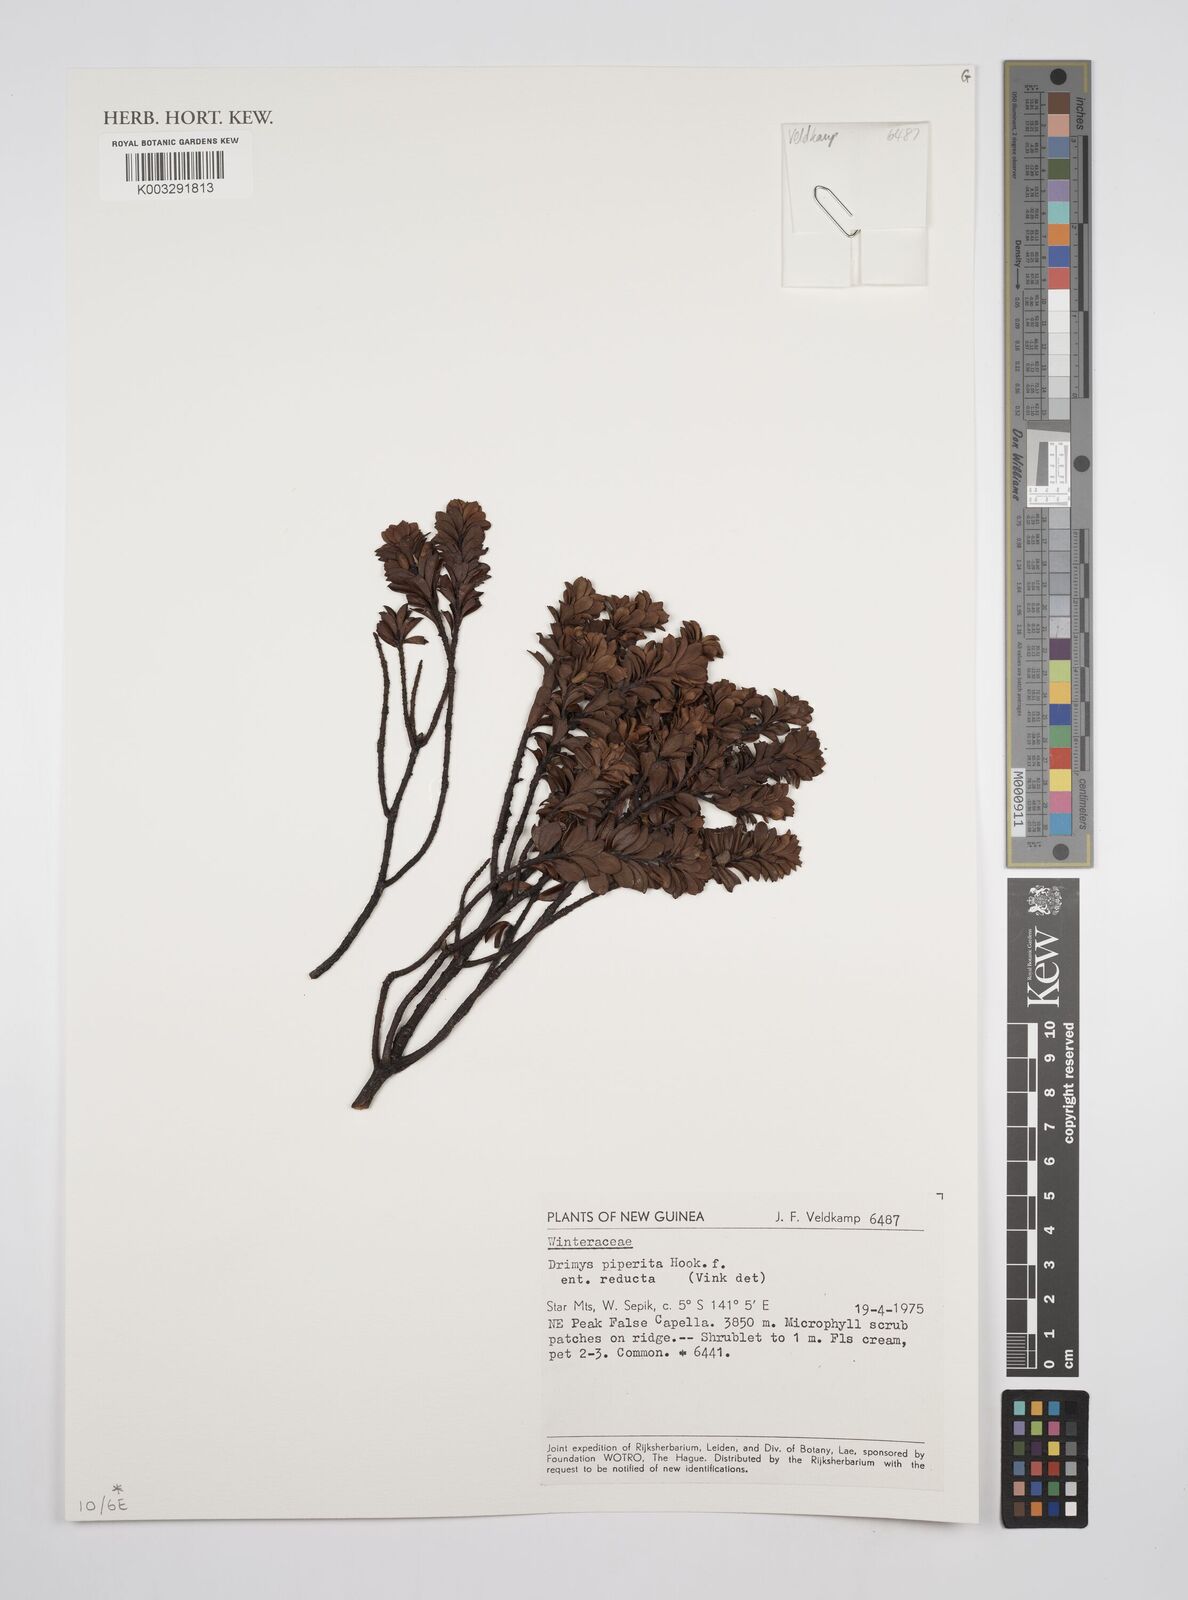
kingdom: Plantae
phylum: Tracheophyta
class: Magnoliopsida
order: Canellales
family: Winteraceae
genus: Drimys
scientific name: Drimys piperita
